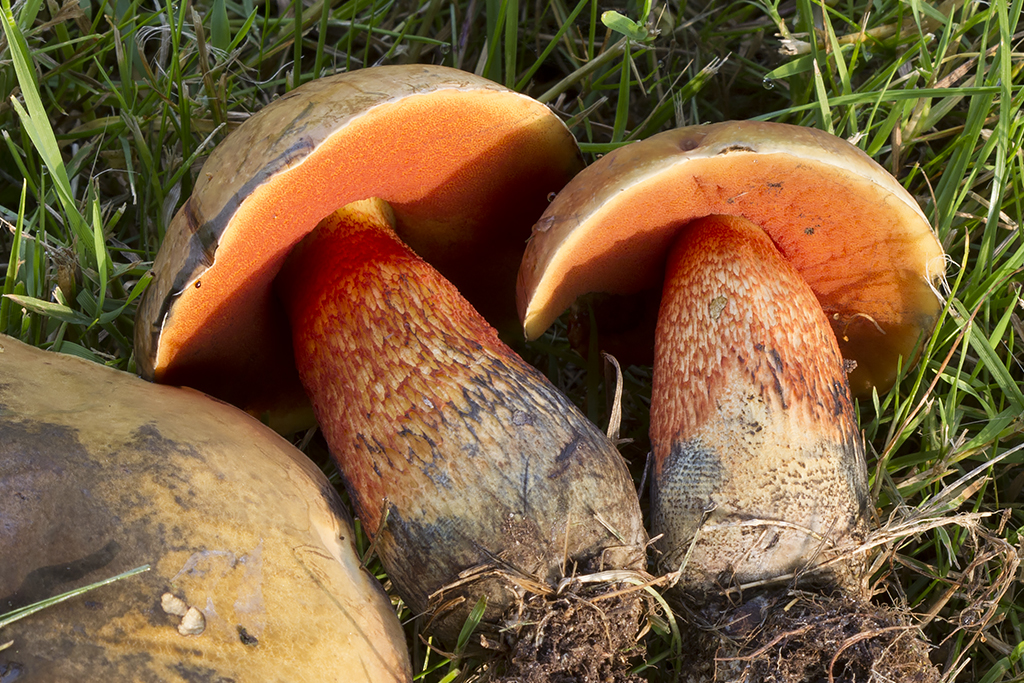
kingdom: Fungi
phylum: Basidiomycota
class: Agaricomycetes
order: Boletales
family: Boletaceae
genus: Suillellus
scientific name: Suillellus luridus
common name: netstokket indigorørhat
